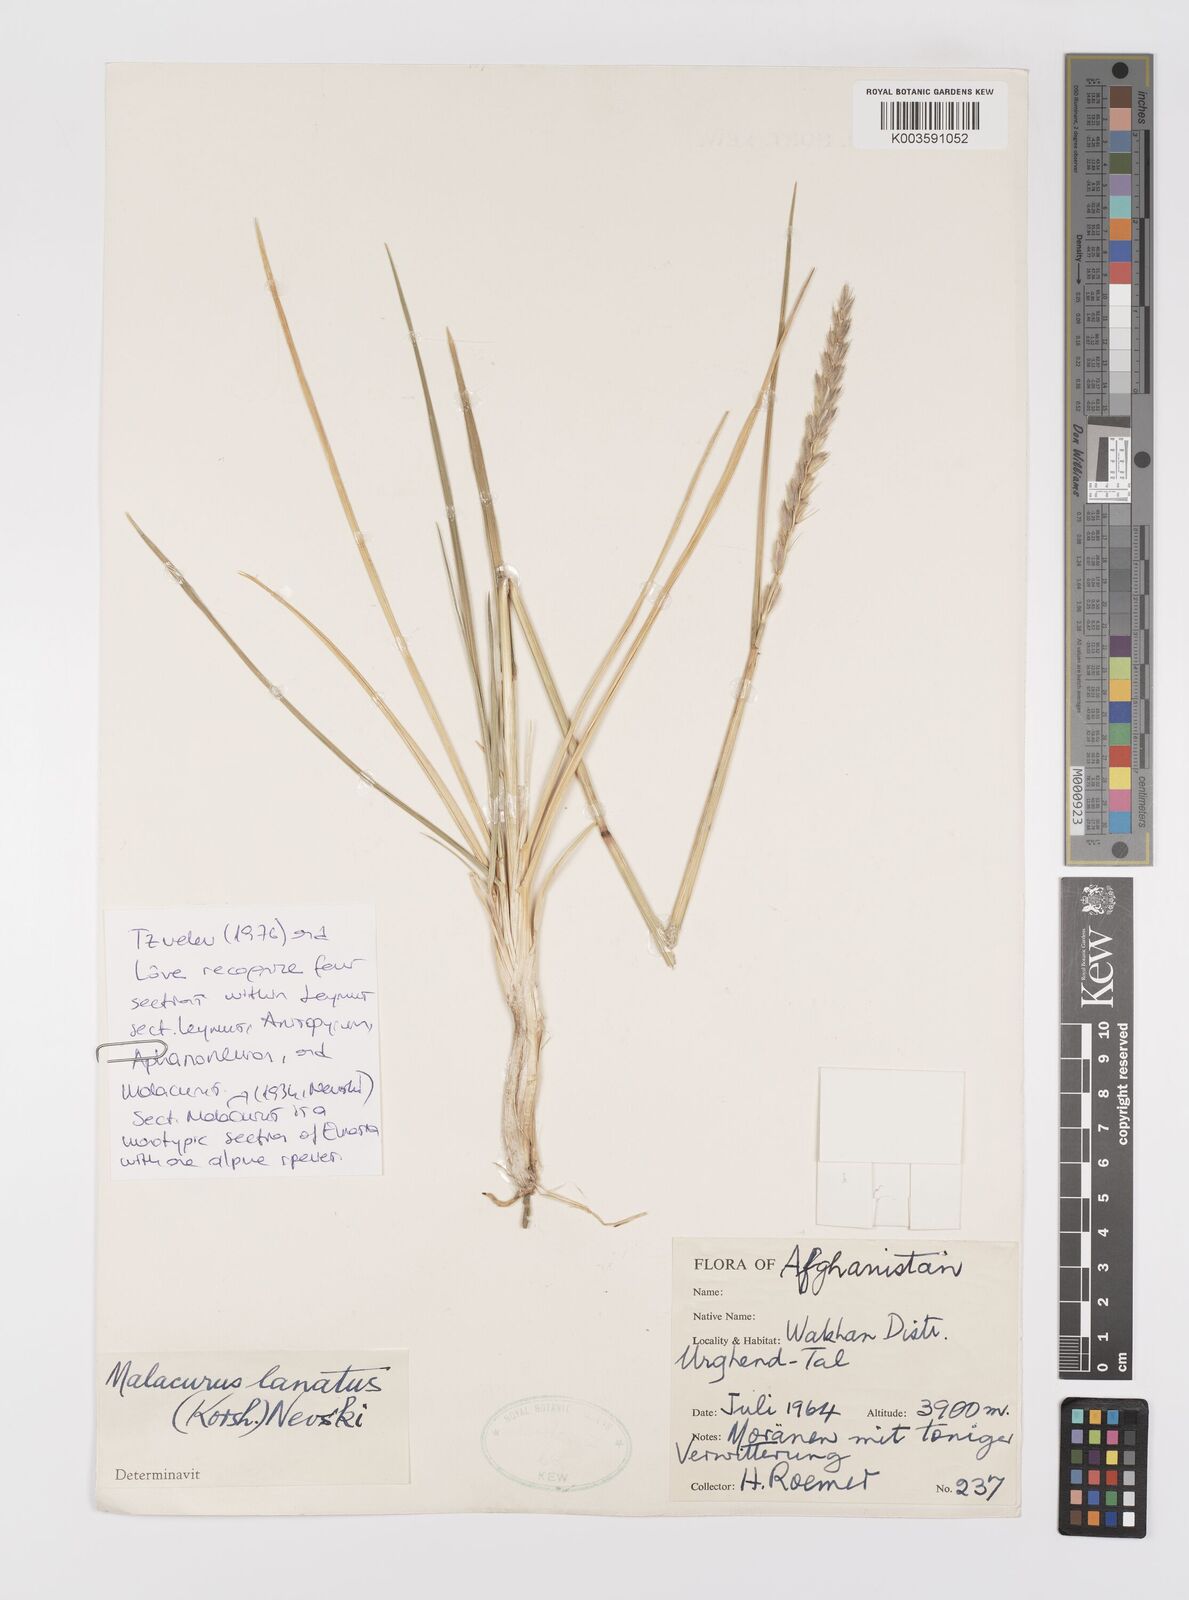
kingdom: Plantae
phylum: Tracheophyta
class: Liliopsida
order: Poales
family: Poaceae
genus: Leymus
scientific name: Leymus lanatus
